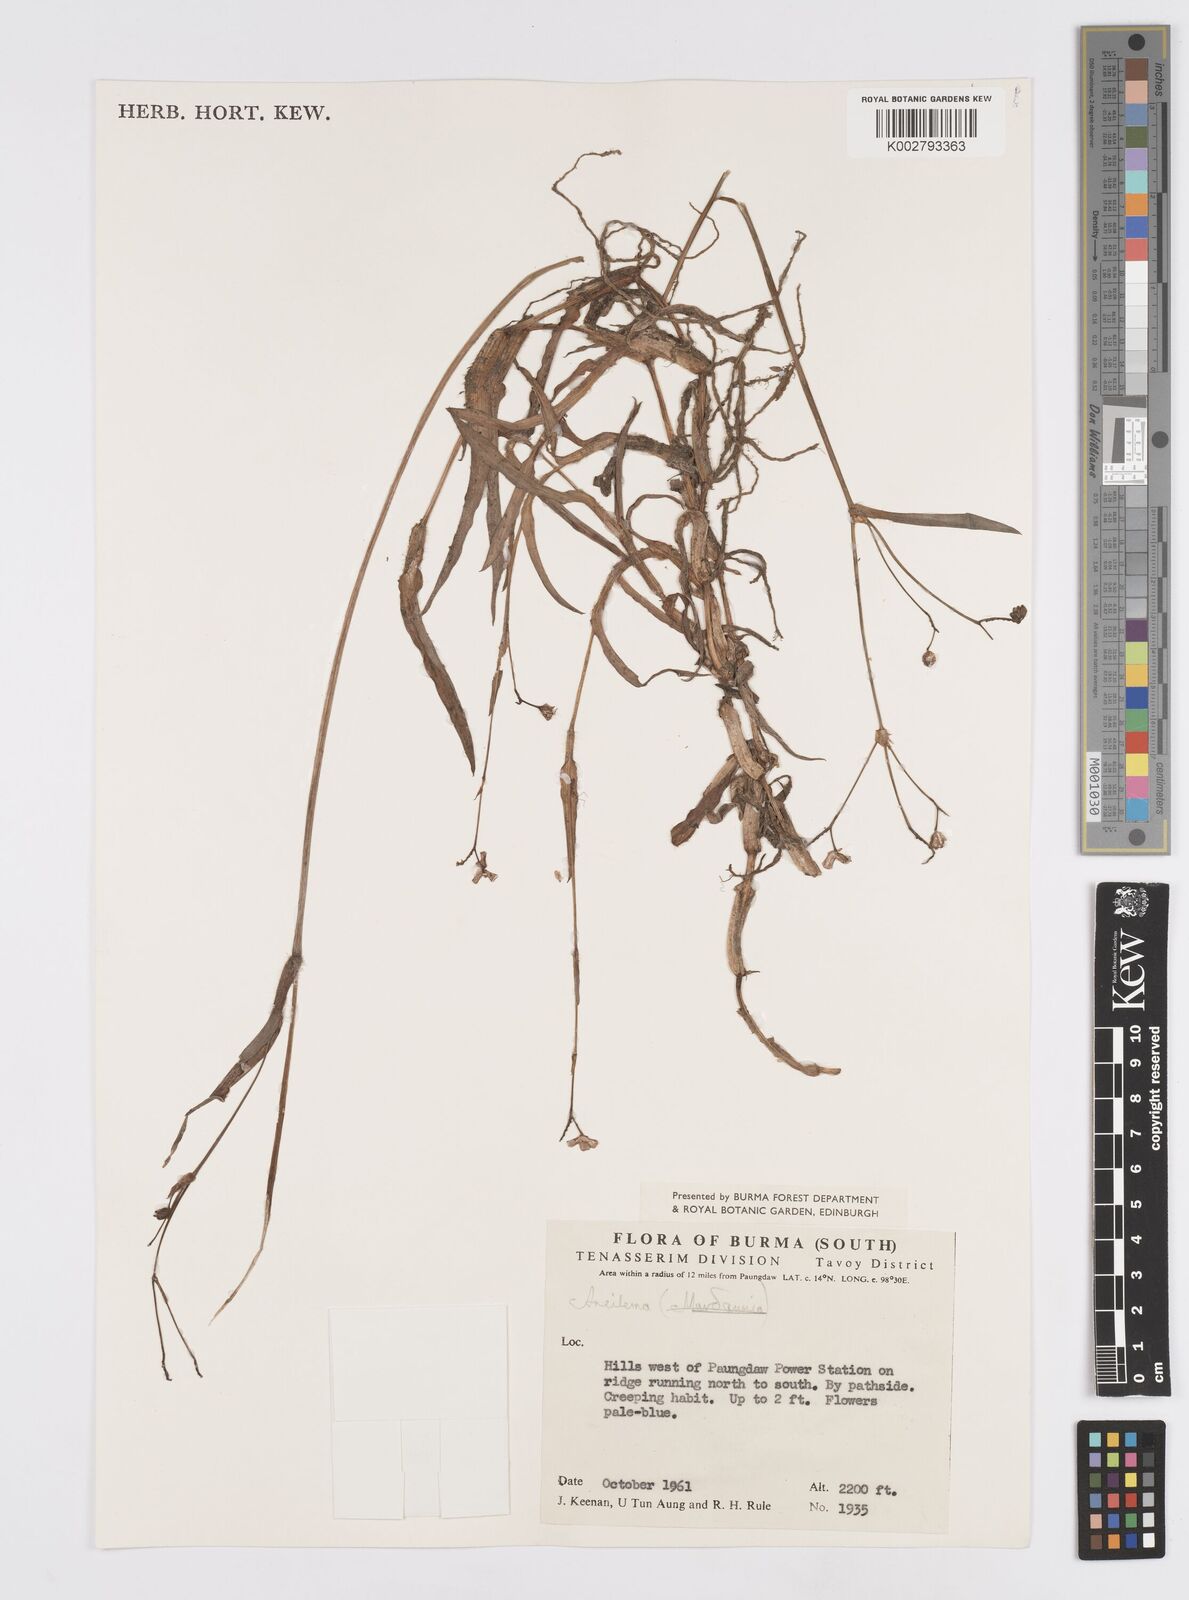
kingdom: Plantae
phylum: Tracheophyta
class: Liliopsida
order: Commelinales
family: Commelinaceae
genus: Murdannia
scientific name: Murdannia
